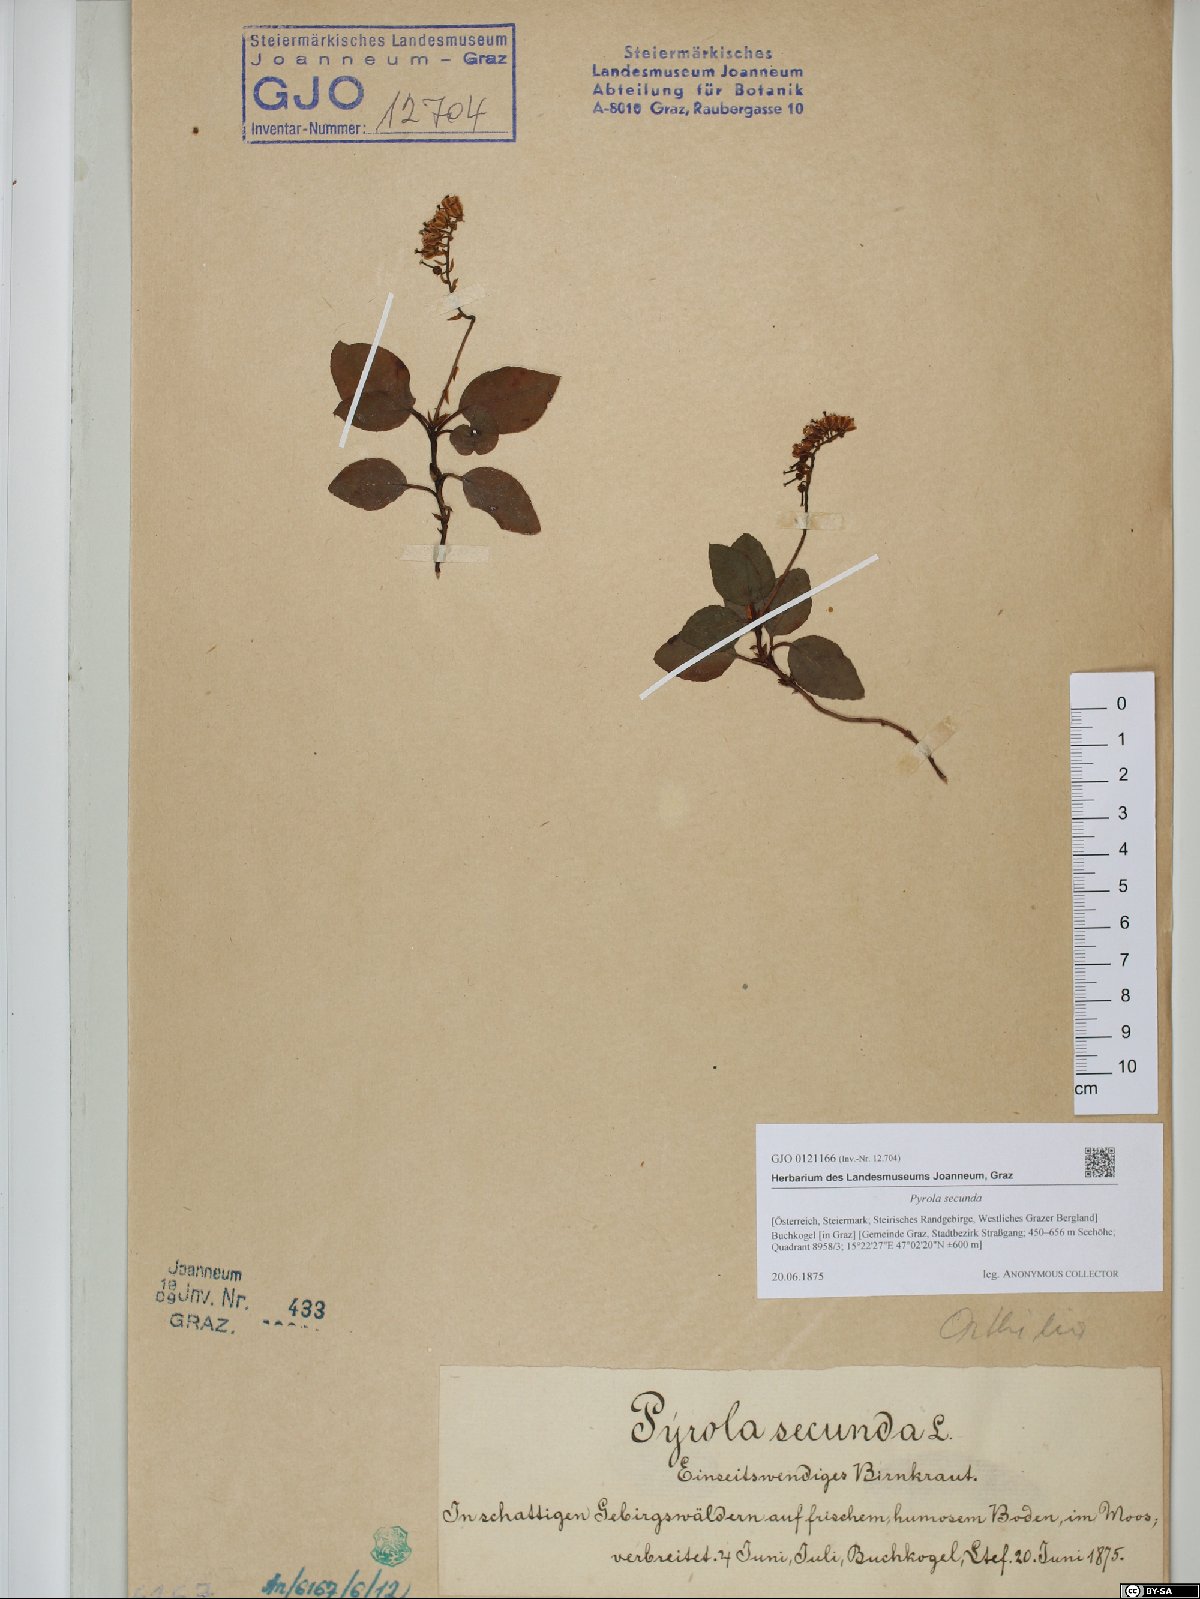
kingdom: Plantae
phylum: Tracheophyta
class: Magnoliopsida
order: Ericales
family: Ericaceae
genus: Orthilia
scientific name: Orthilia secunda
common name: One-sided orthilia
